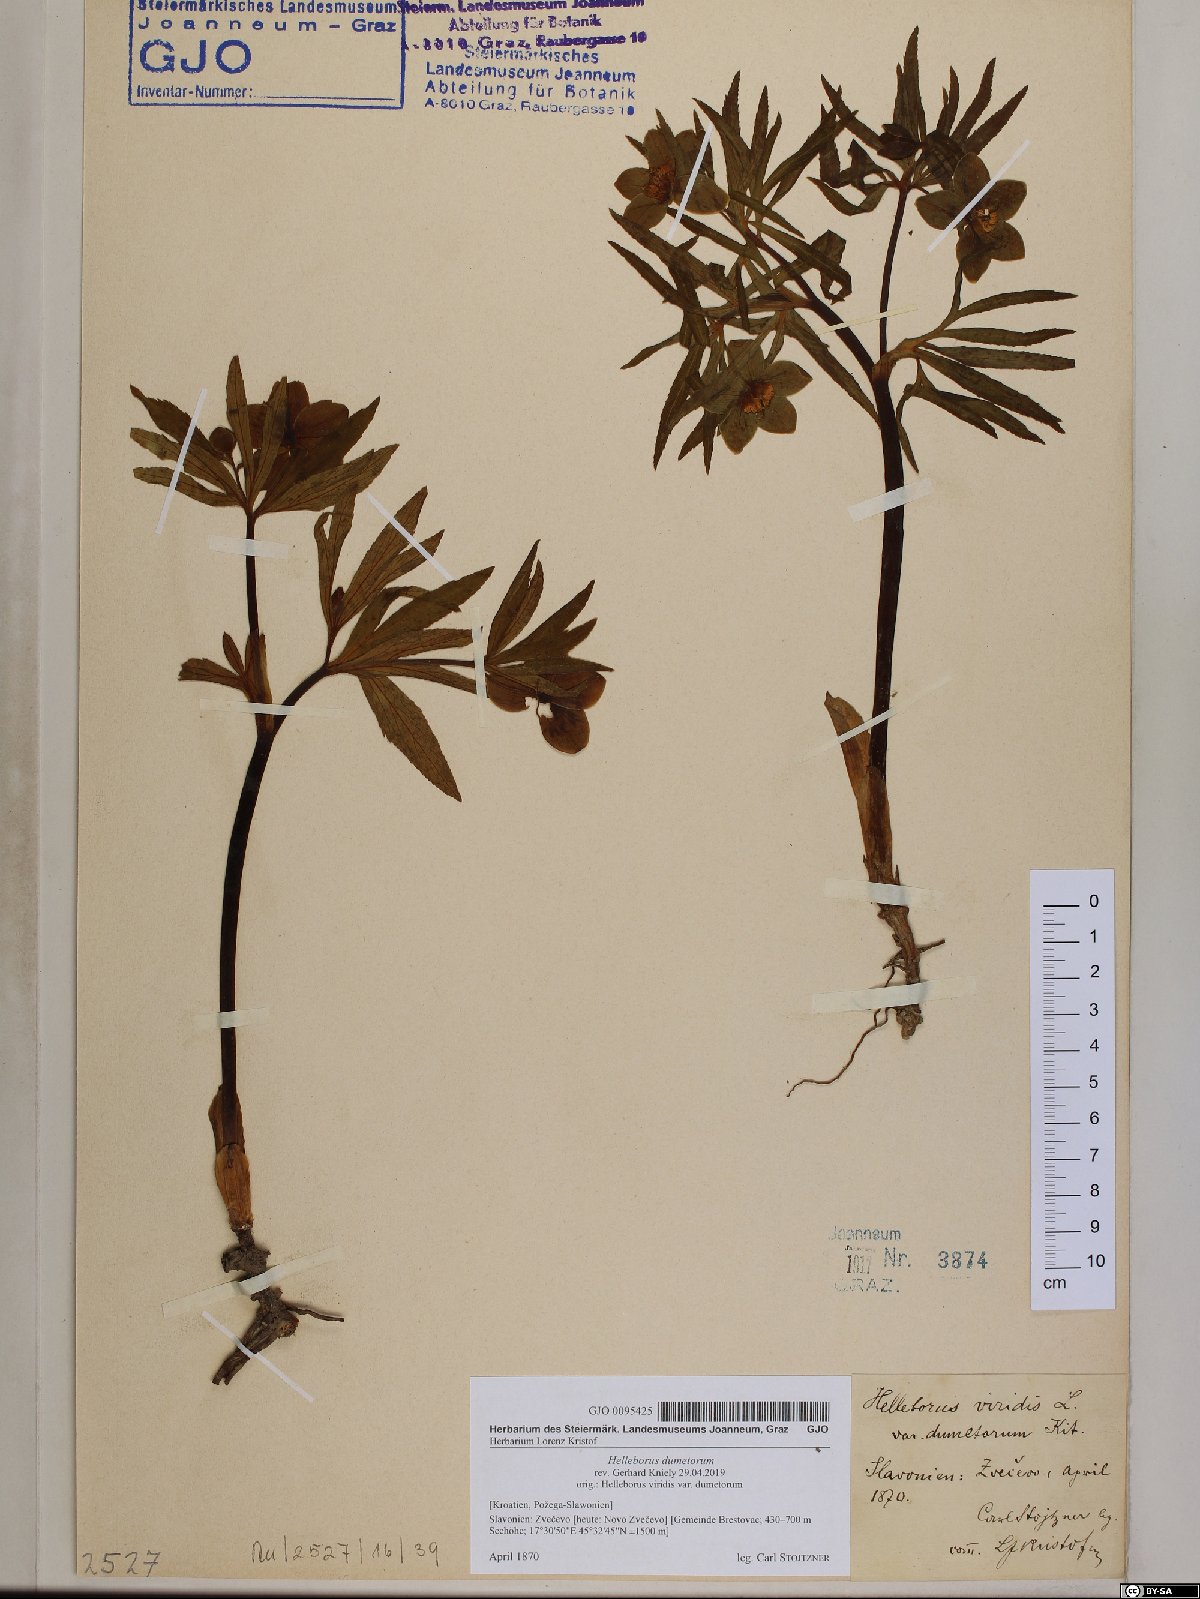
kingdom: Plantae
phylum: Tracheophyta
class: Magnoliopsida
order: Ranunculales
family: Ranunculaceae
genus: Helleborus
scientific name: Helleborus dumetorum
